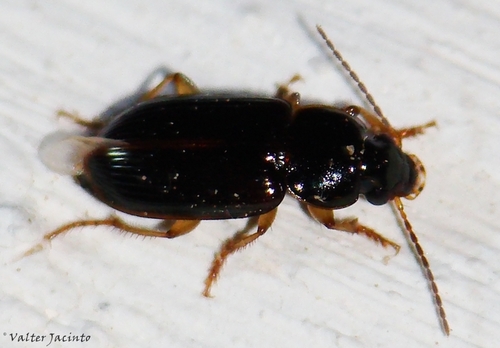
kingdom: Animalia
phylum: Arthropoda
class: Insecta
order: Coleoptera
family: Carabidae
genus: Stenolophus
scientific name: Stenolophus mixtus
